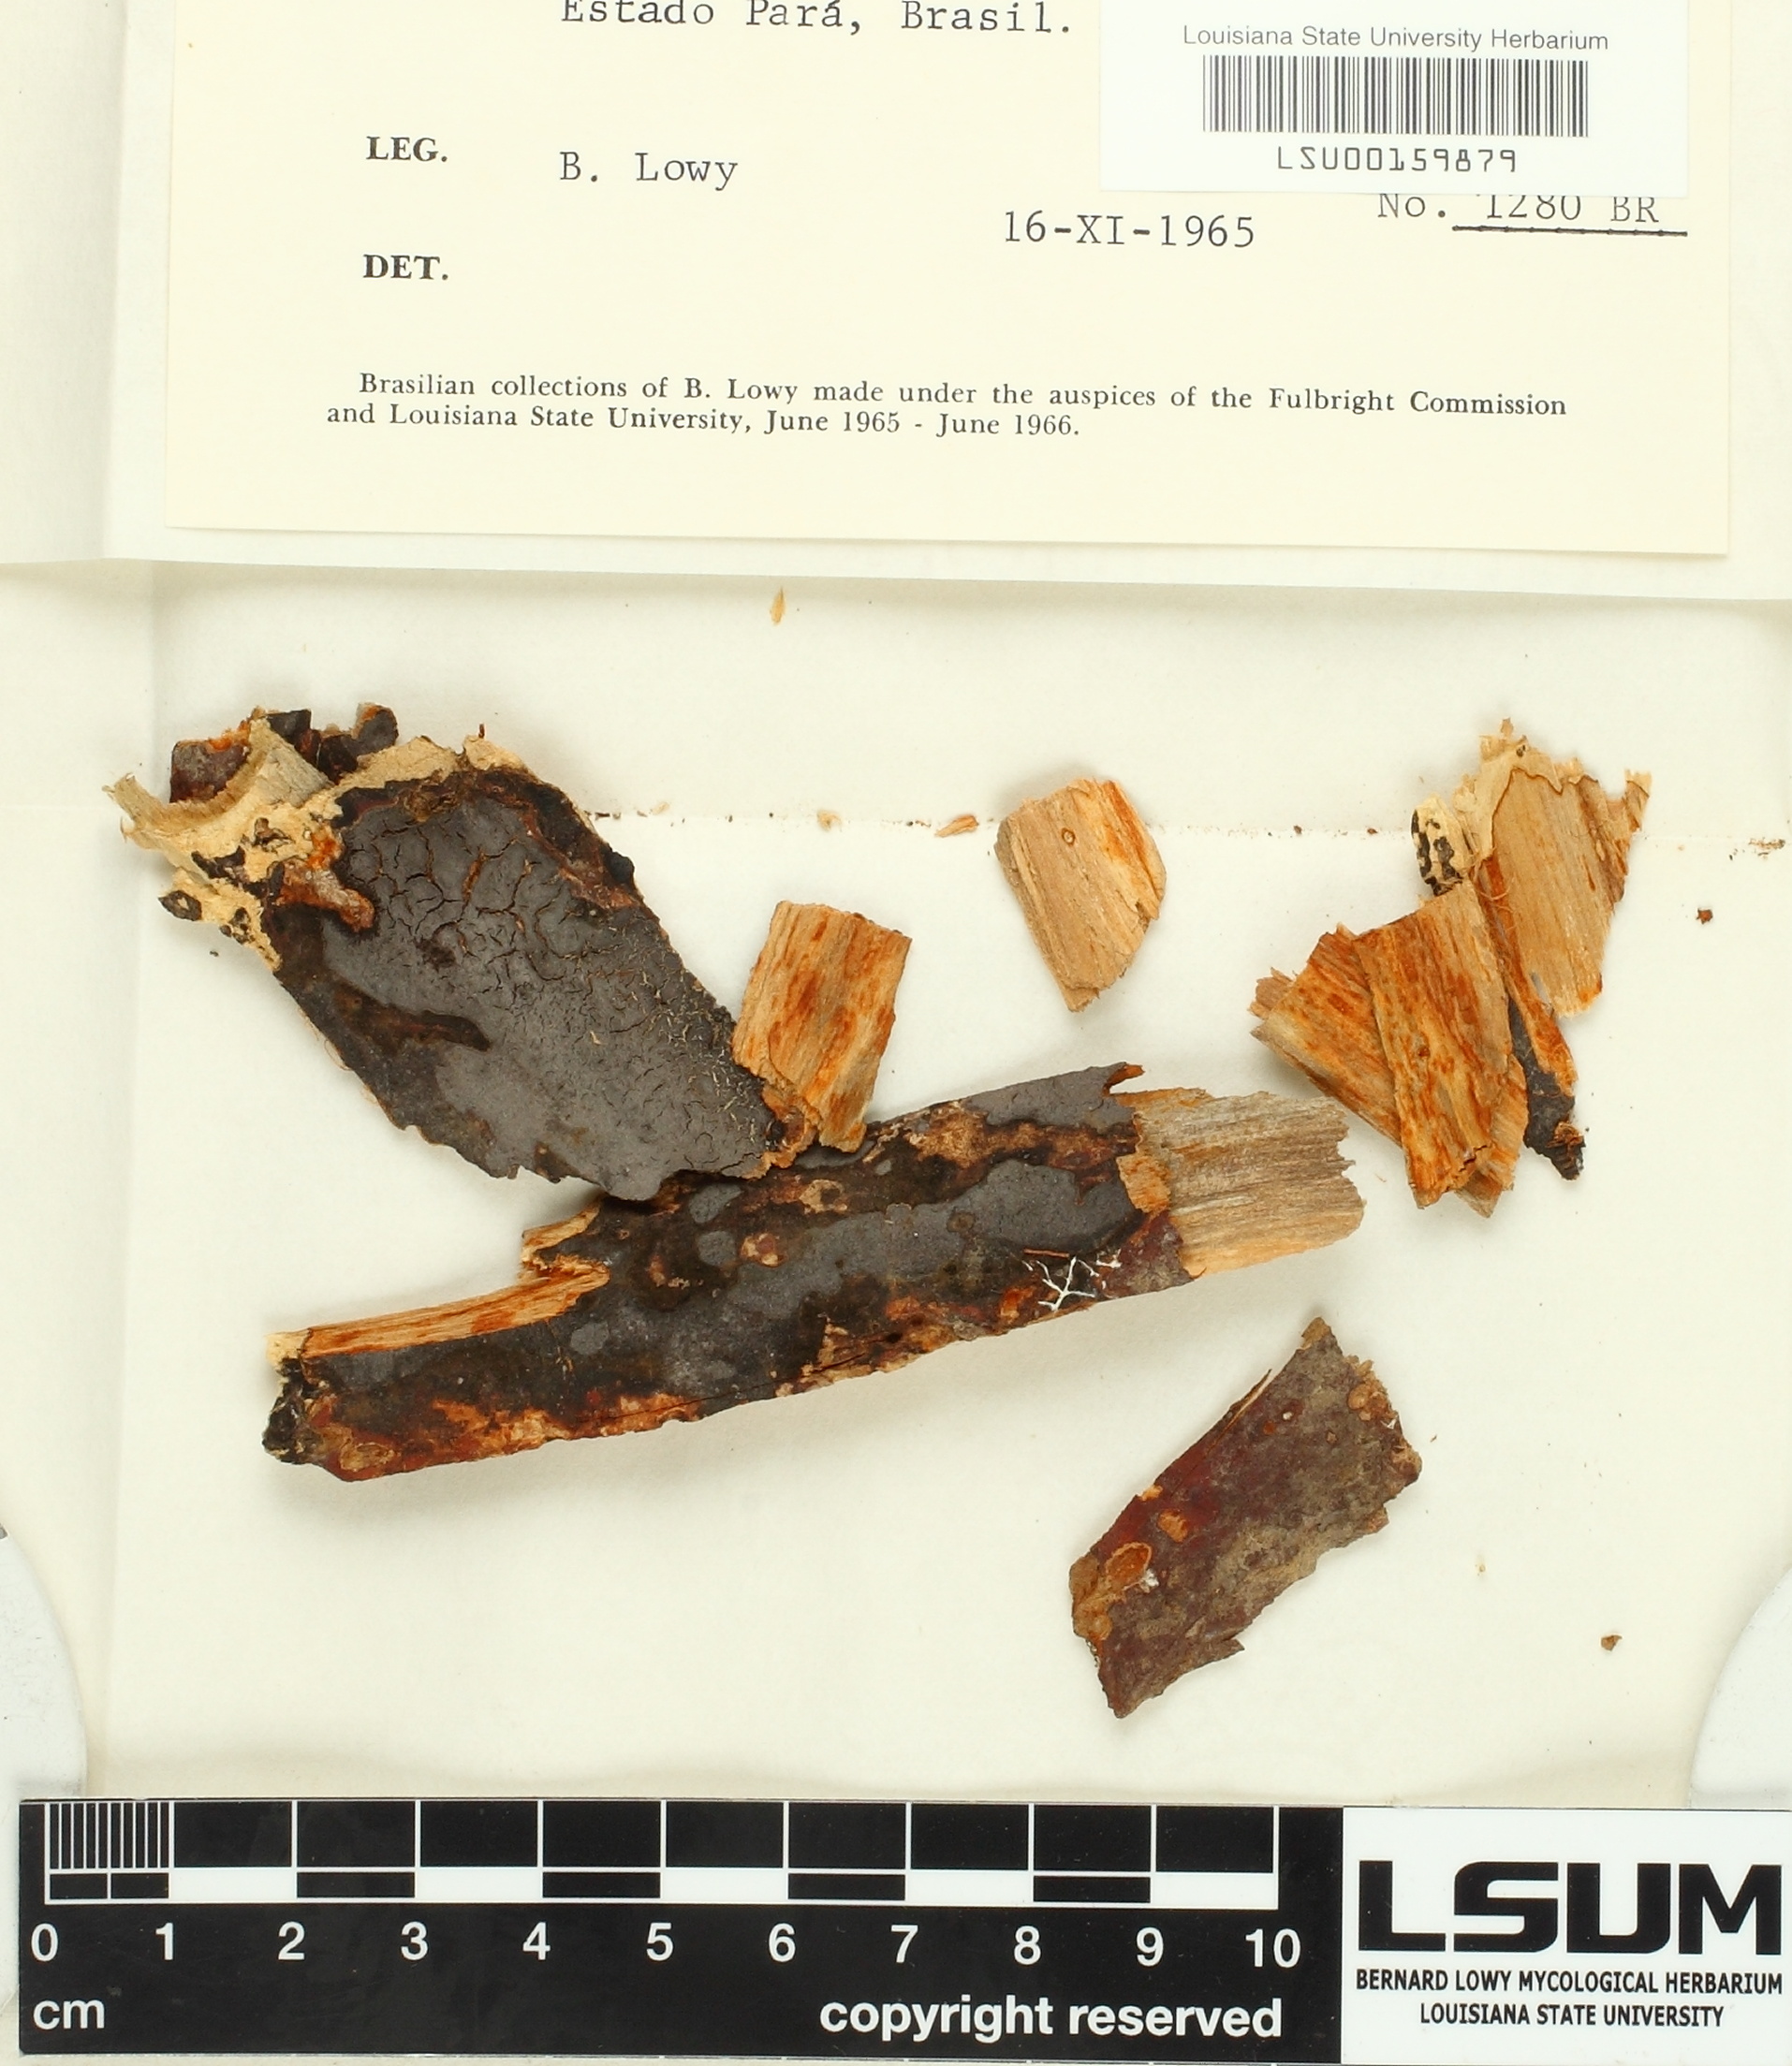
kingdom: Fungi
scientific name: Fungi
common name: Fungi
